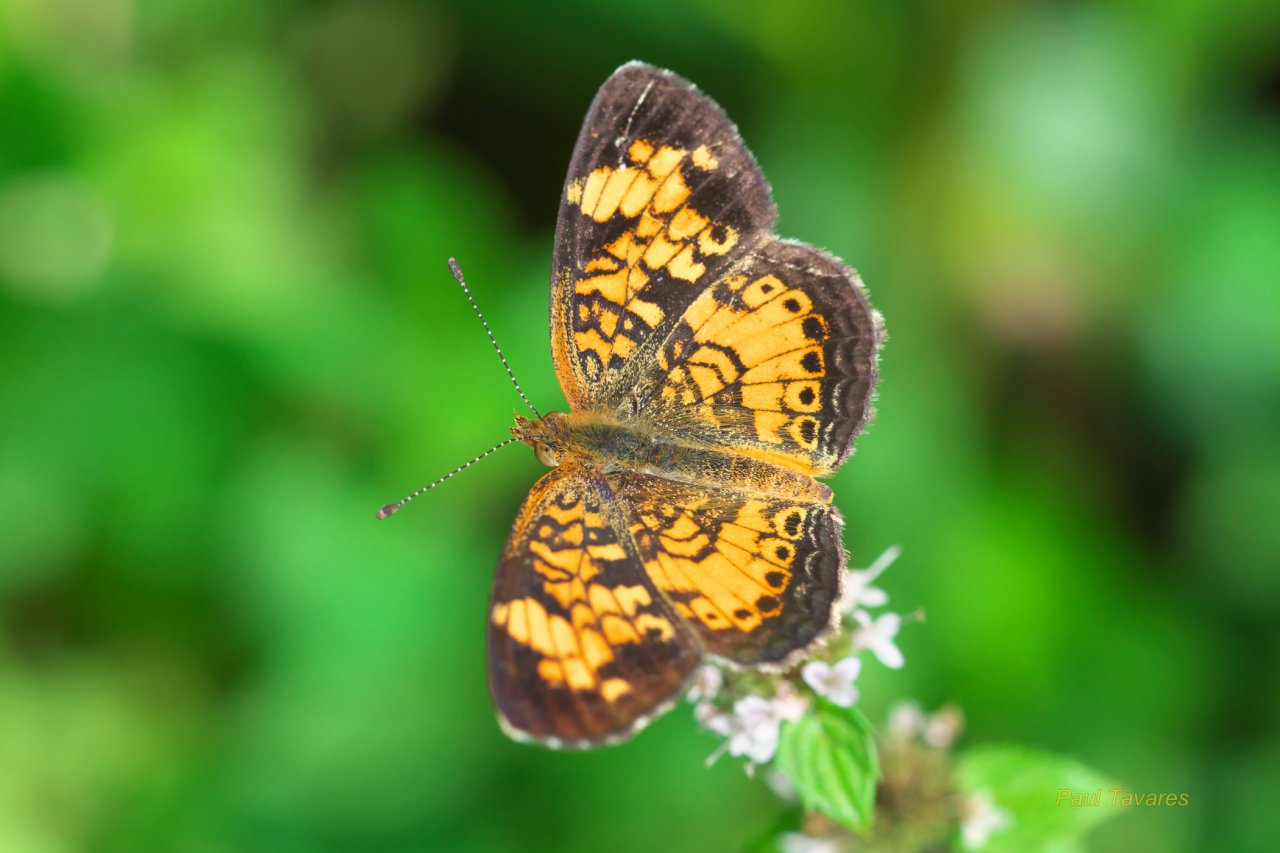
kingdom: Animalia
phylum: Arthropoda
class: Insecta
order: Lepidoptera
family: Nymphalidae
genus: Phyciodes
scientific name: Phyciodes tharos
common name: Pearl Crescent
